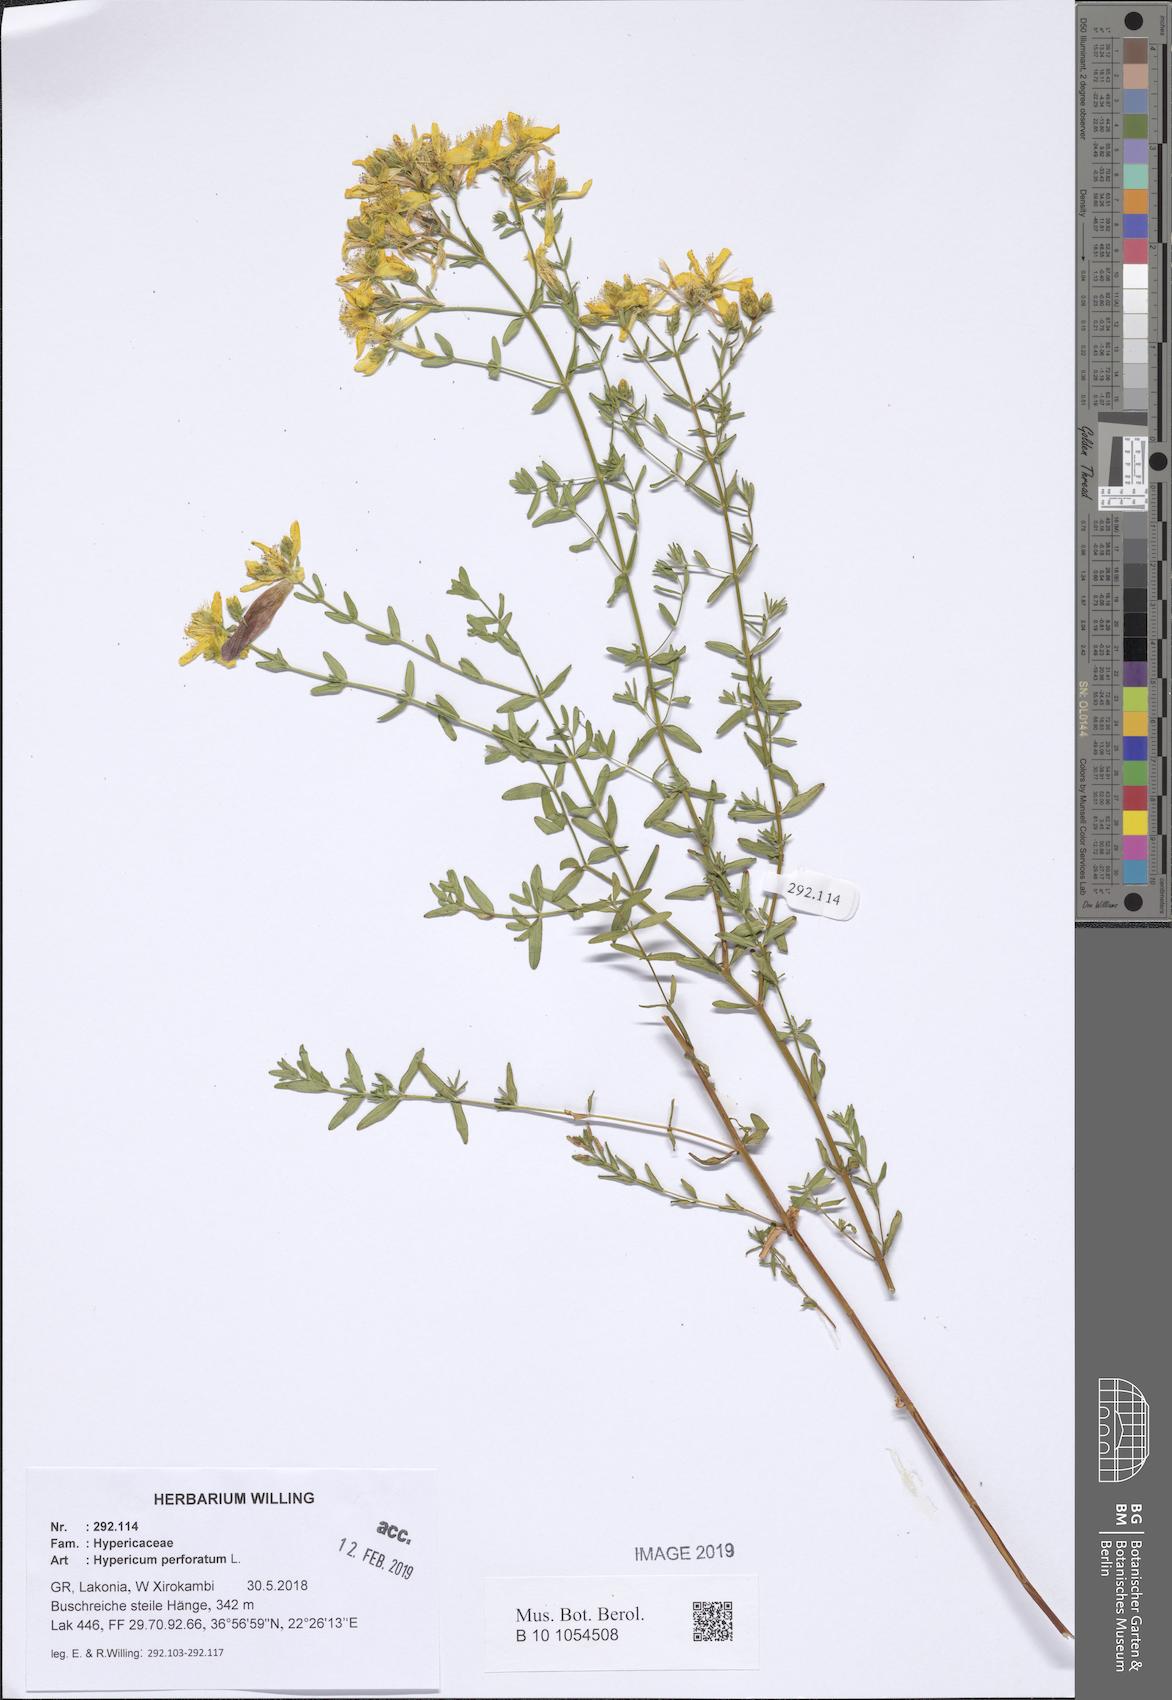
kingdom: Plantae
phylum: Tracheophyta
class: Magnoliopsida
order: Malpighiales
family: Hypericaceae
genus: Hypericum
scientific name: Hypericum perforatum
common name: Common st. johnswort
